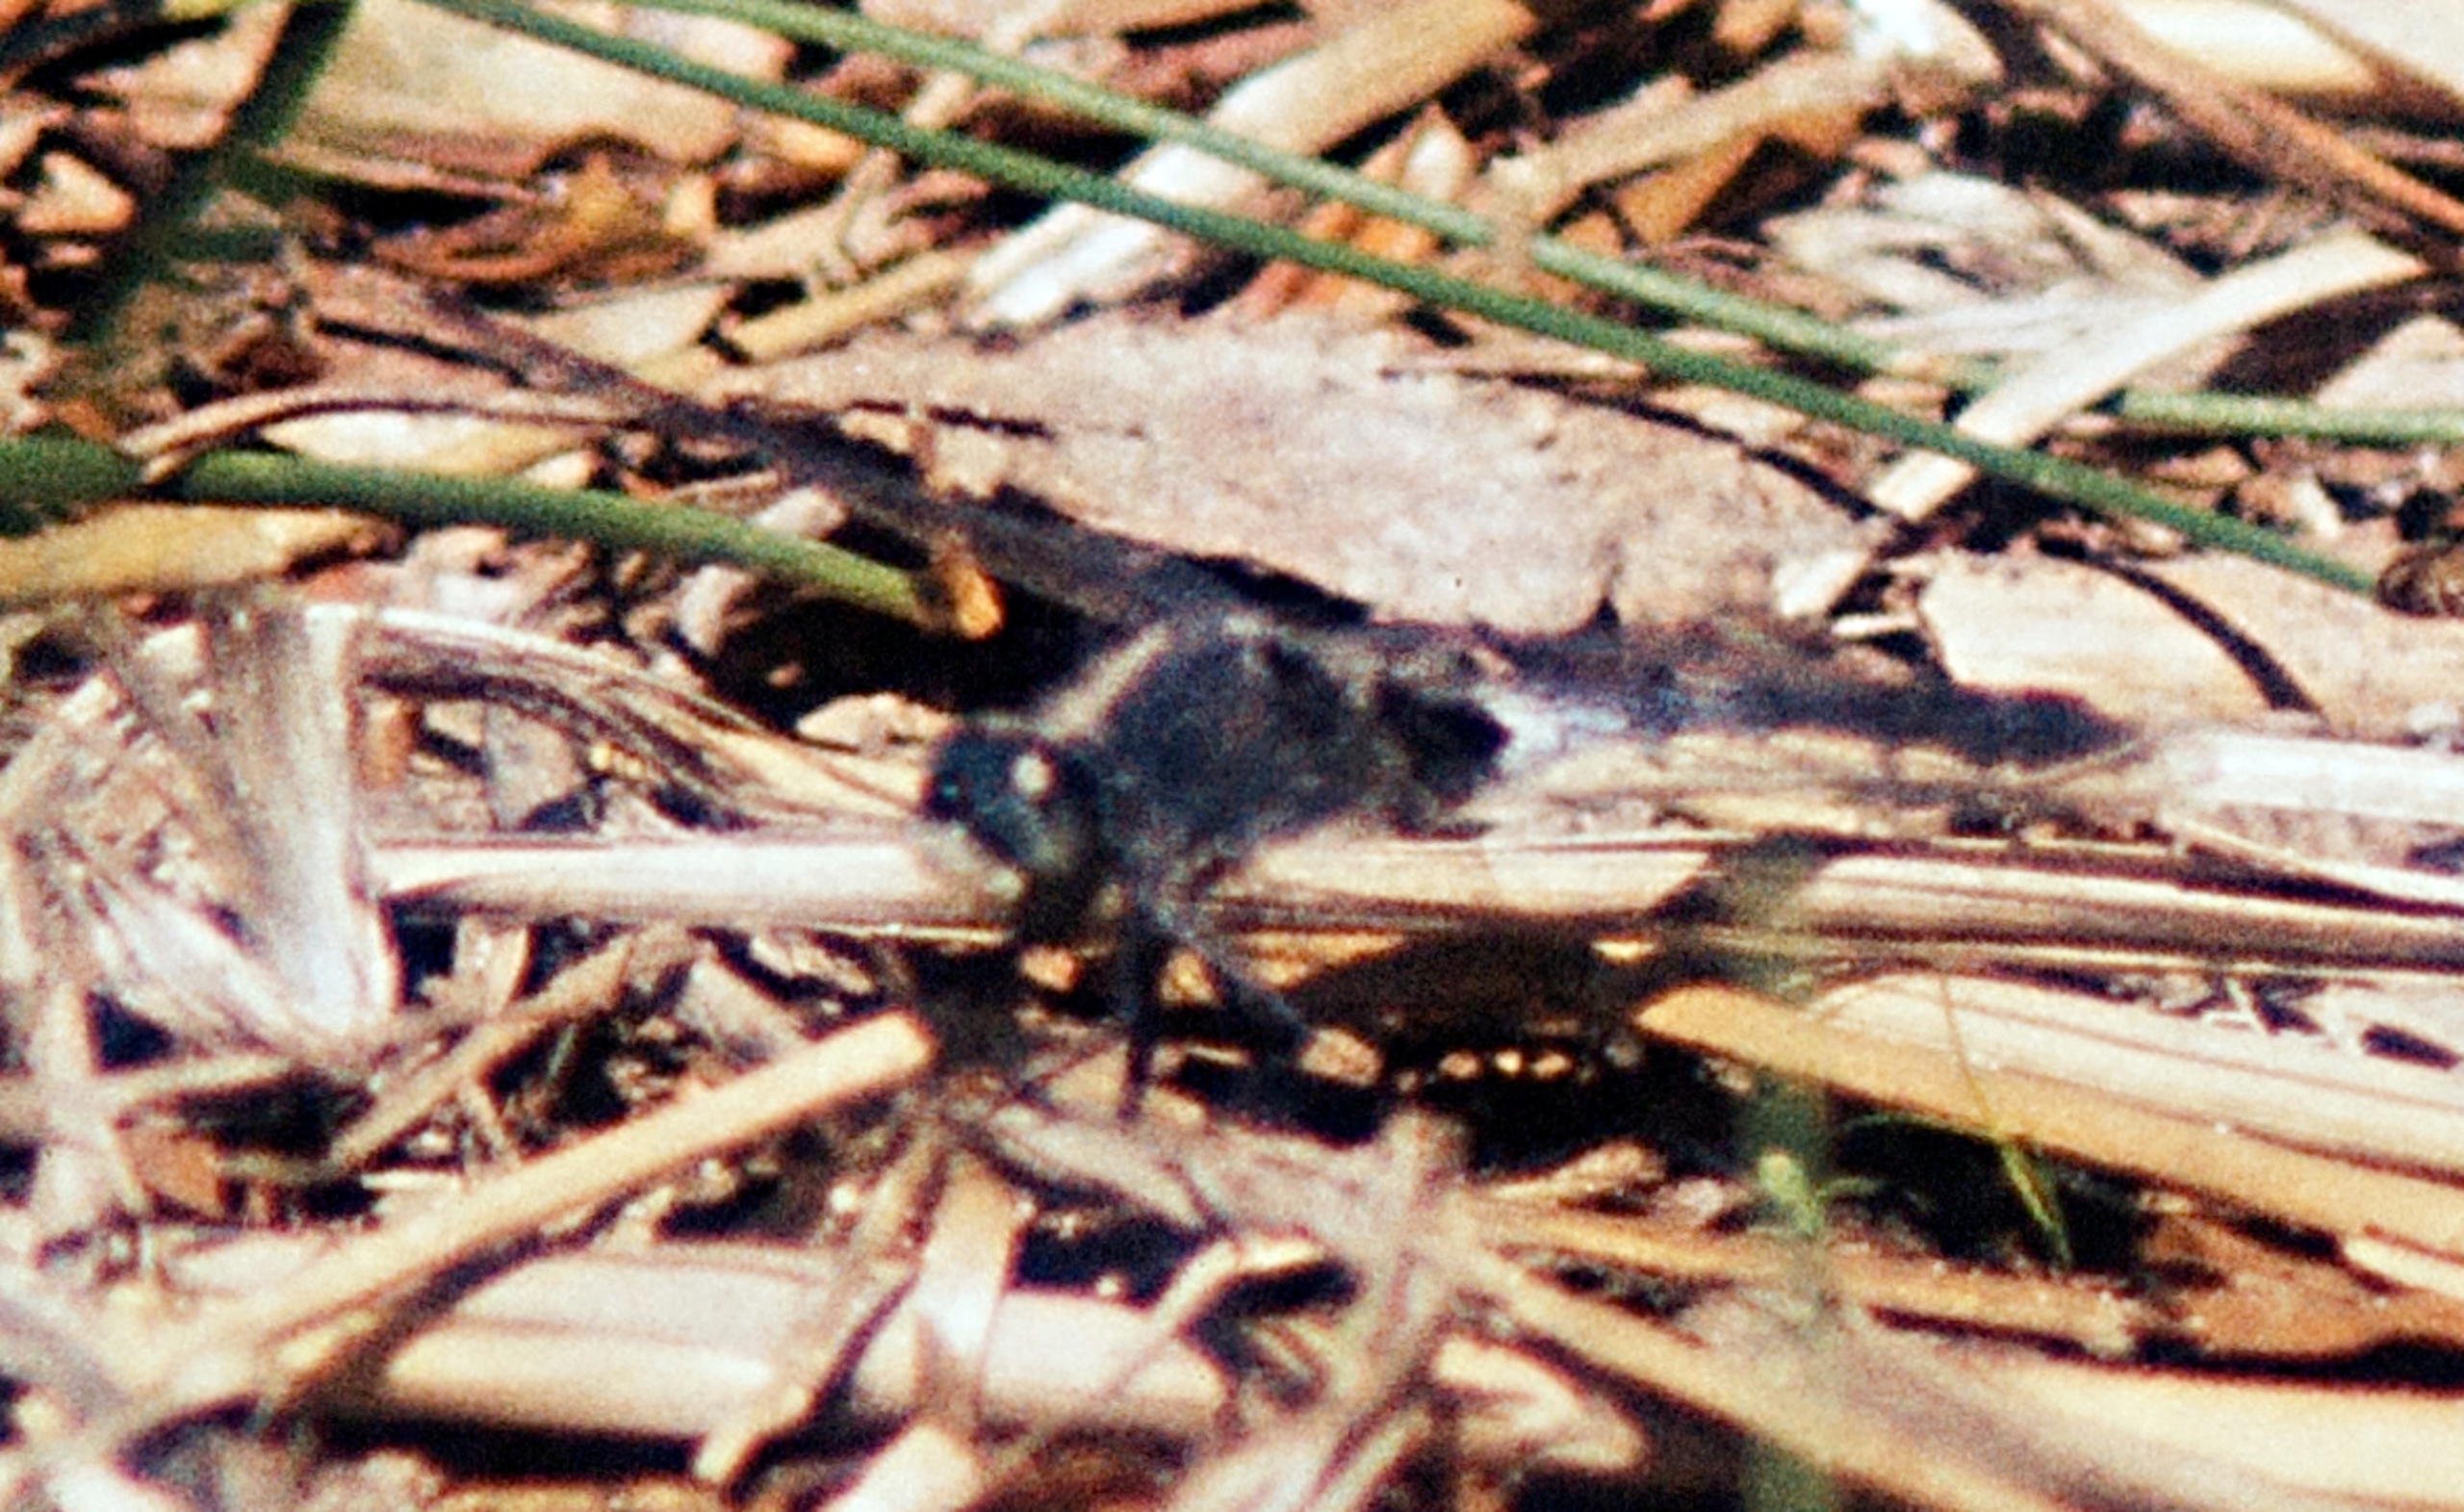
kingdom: Animalia
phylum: Arthropoda
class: Insecta
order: Odonata
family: Libellulidae
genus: Leucorrhinia
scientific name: Leucorrhinia albifrons
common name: Østlig kærguldsmed
